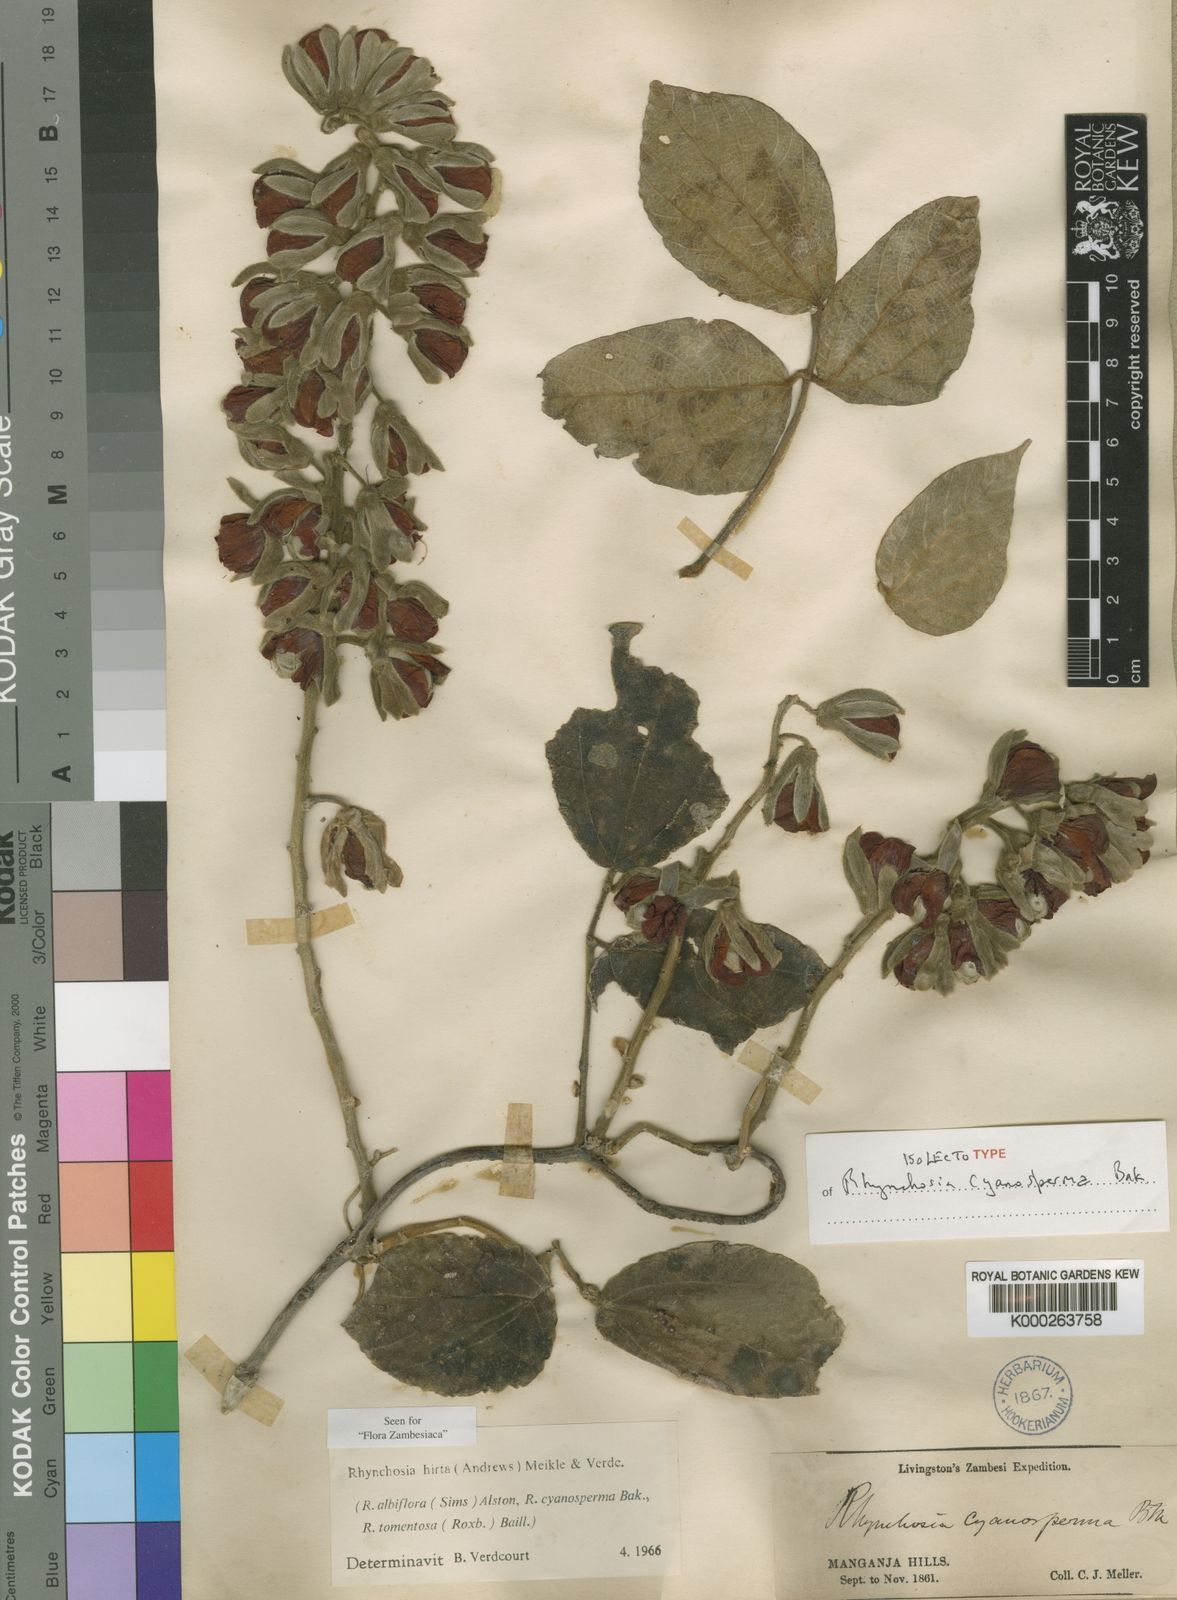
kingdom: Plantae
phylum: Tracheophyta
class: Magnoliopsida
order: Fabales
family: Fabaceae
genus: Rhynchosia
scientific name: Rhynchosia hirta
